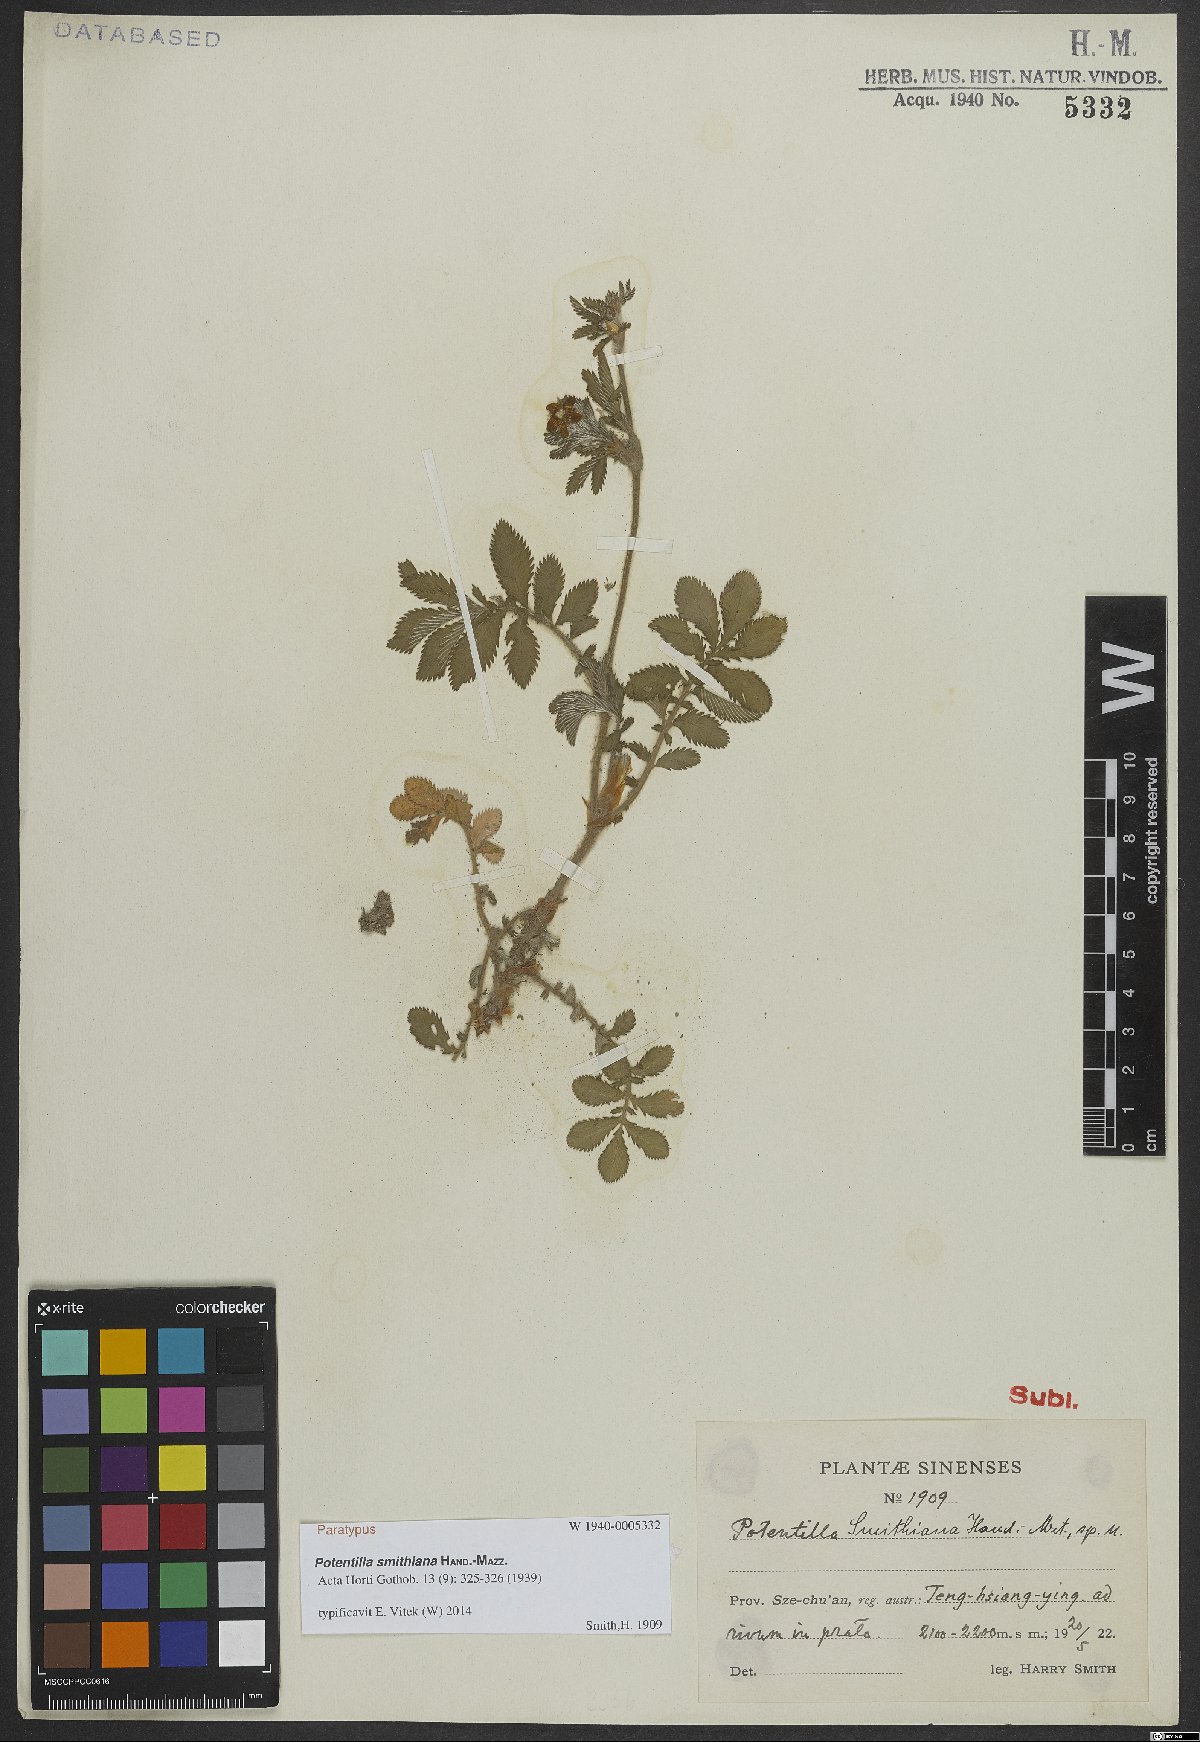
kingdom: Plantae
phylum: Tracheophyta
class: Magnoliopsida
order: Rosales
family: Rosaceae
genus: Argentina
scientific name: Argentina smithiana
